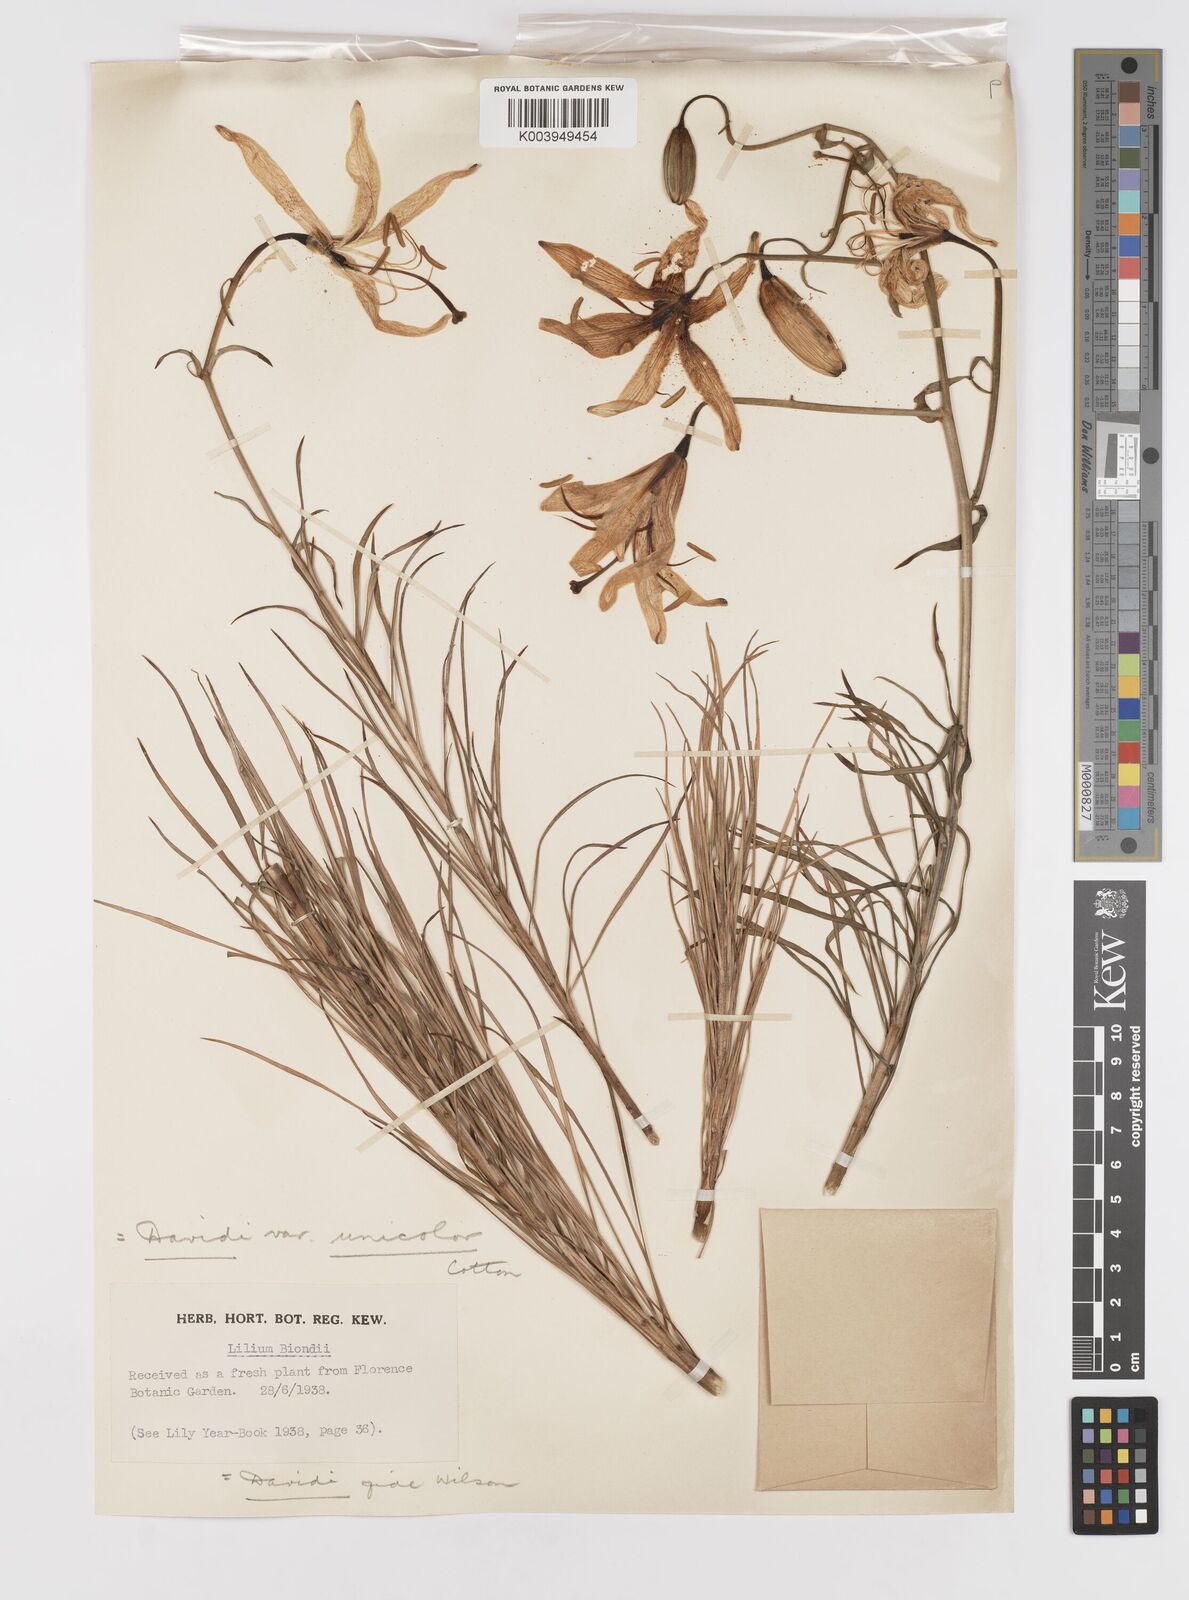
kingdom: Plantae
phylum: Tracheophyta
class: Liliopsida
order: Liliales
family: Liliaceae
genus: Lilium
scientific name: Lilium davidii
